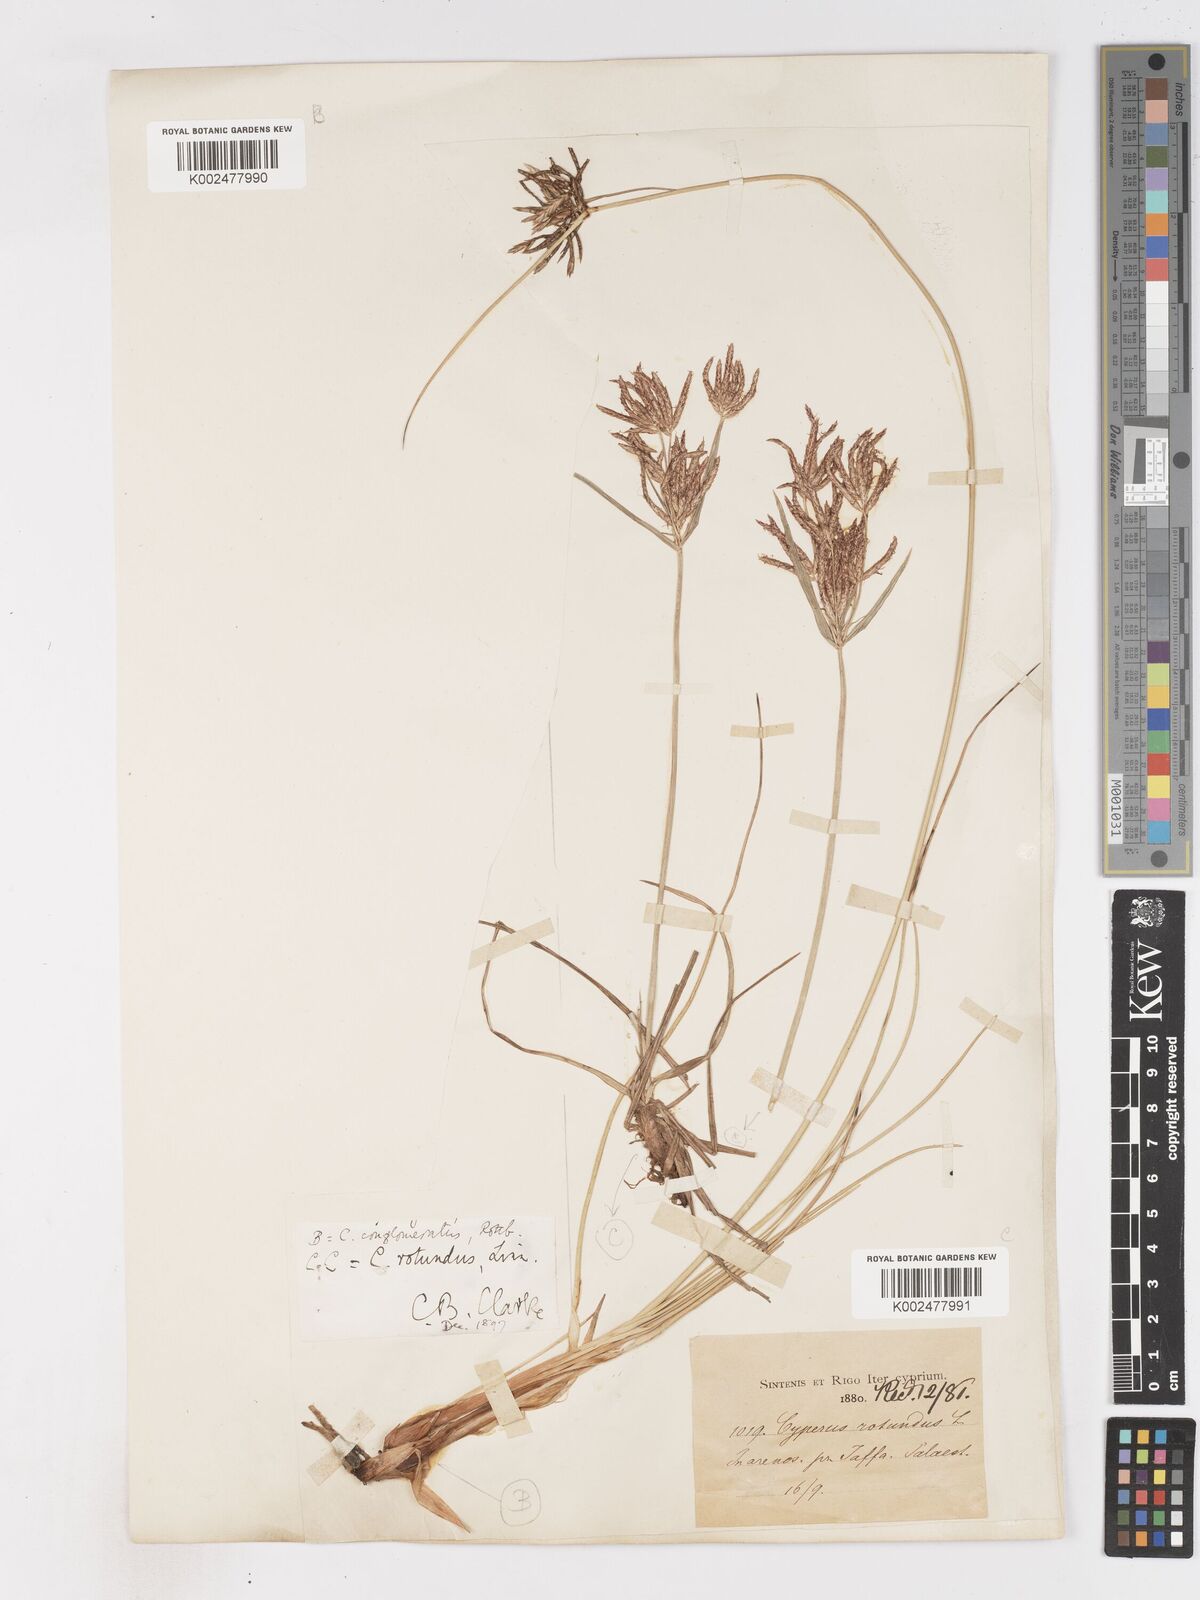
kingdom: Plantae
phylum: Tracheophyta
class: Liliopsida
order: Poales
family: Cyperaceae
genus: Cyperus
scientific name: Cyperus rotundus
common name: Nutgrass
